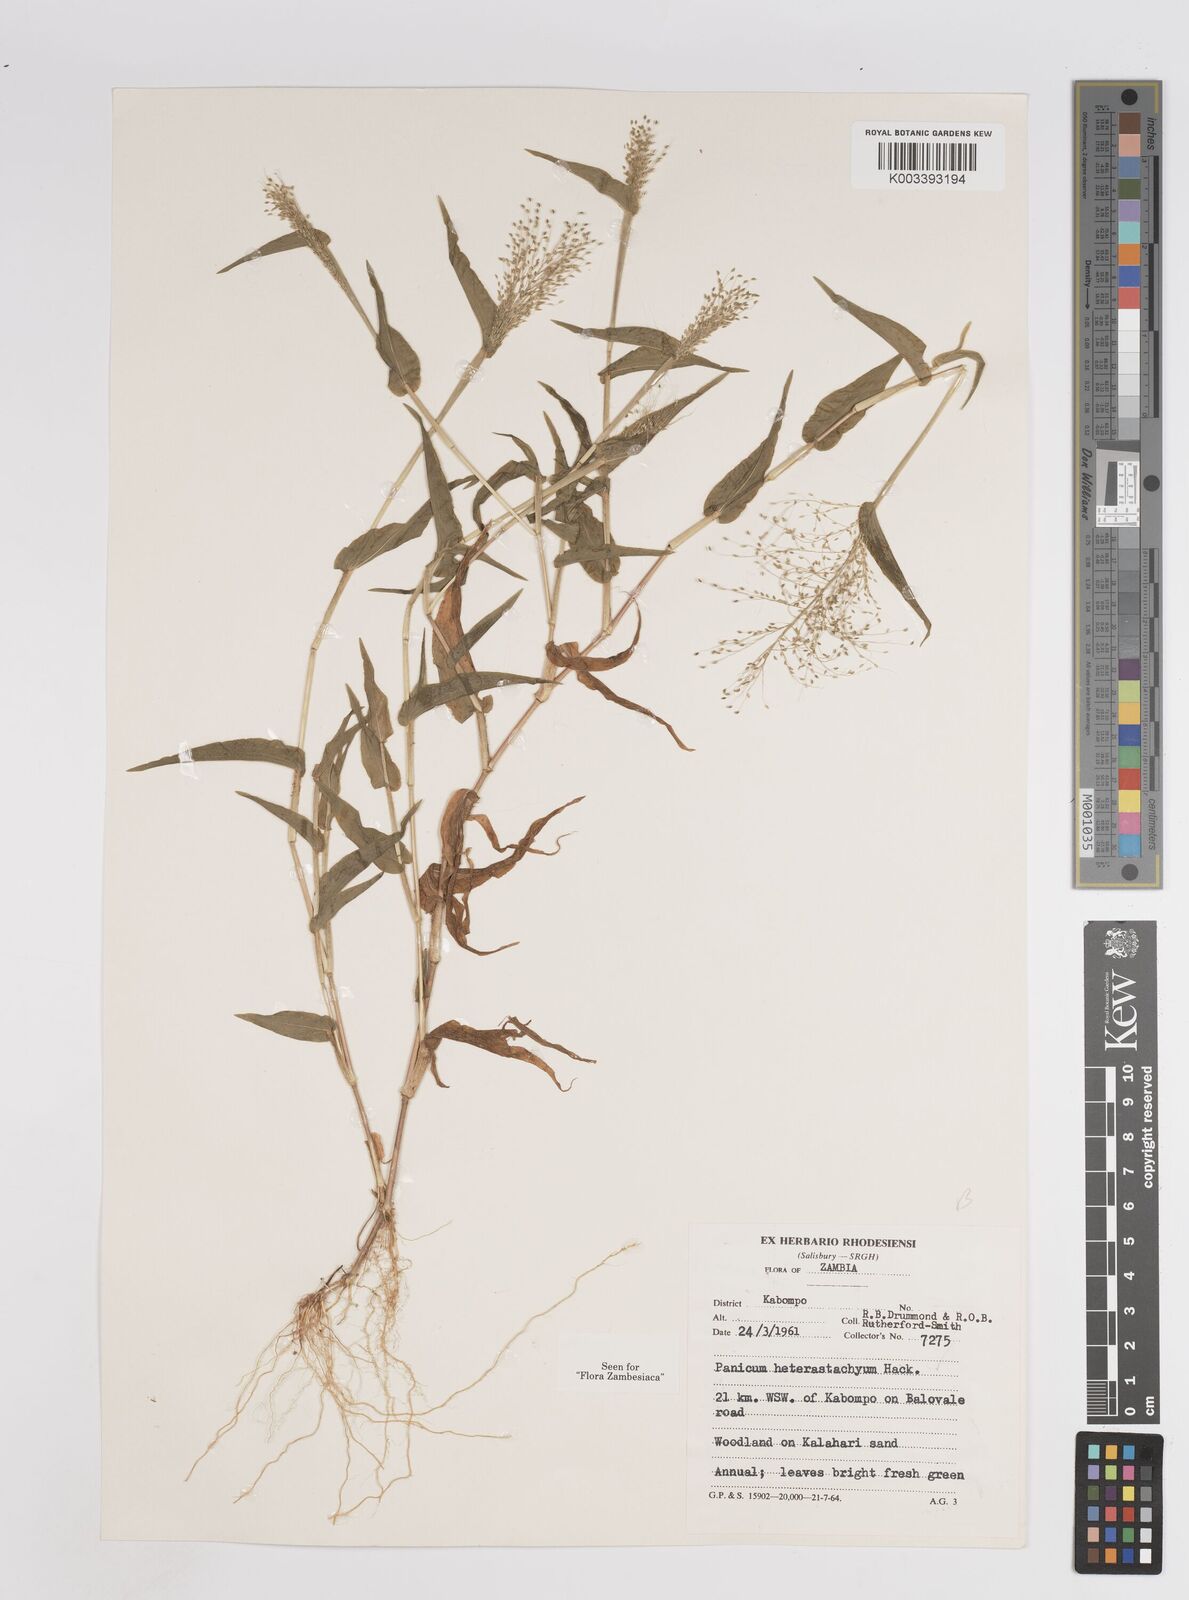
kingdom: Plantae
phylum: Tracheophyta
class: Liliopsida
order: Poales
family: Poaceae
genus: Panicum
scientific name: Panicum hirtum
